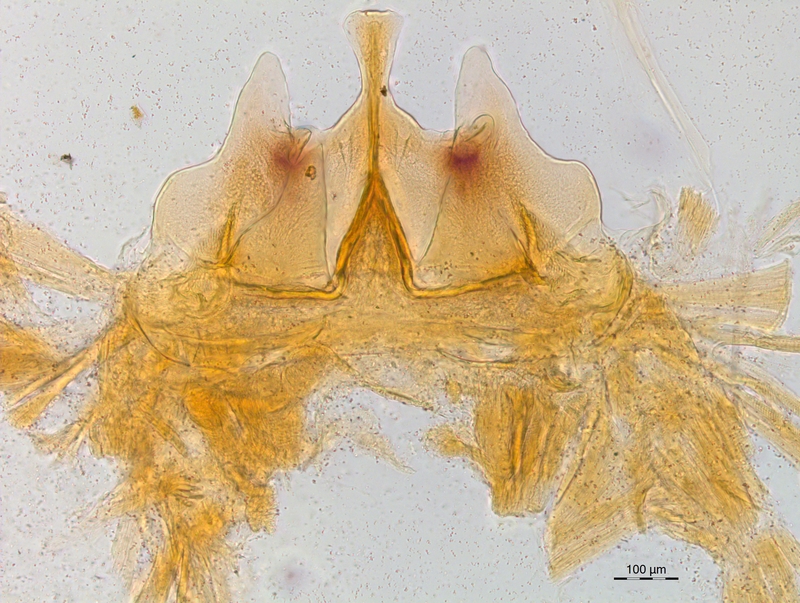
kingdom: Animalia
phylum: Arthropoda
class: Diplopoda
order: Chordeumatida
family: Craspedosomatidae
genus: Craspedosoma
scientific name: Craspedosoma alemannicum
